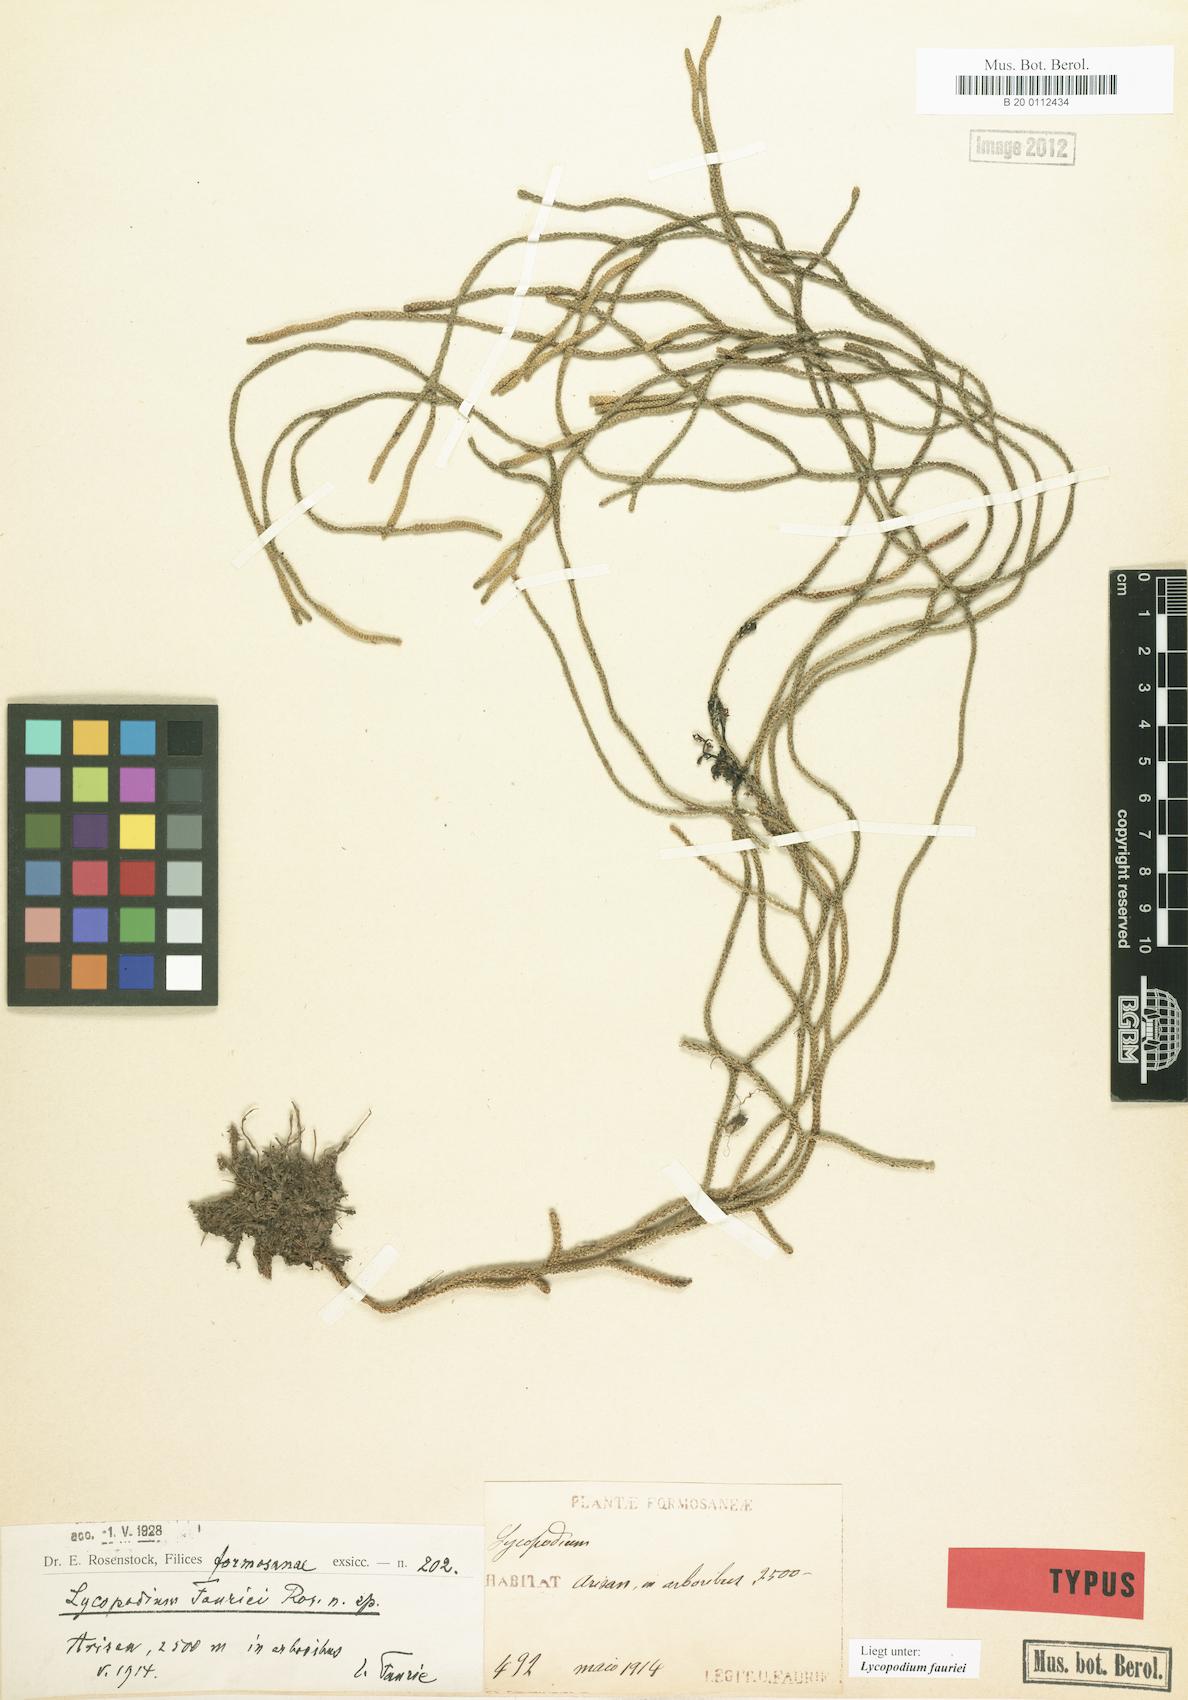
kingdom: Plantae
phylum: Tracheophyta
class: Lycopodiopsida
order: Lycopodiales
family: Lycopodiaceae
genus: Phlegmariurus
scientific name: Phlegmariurus fargesii
